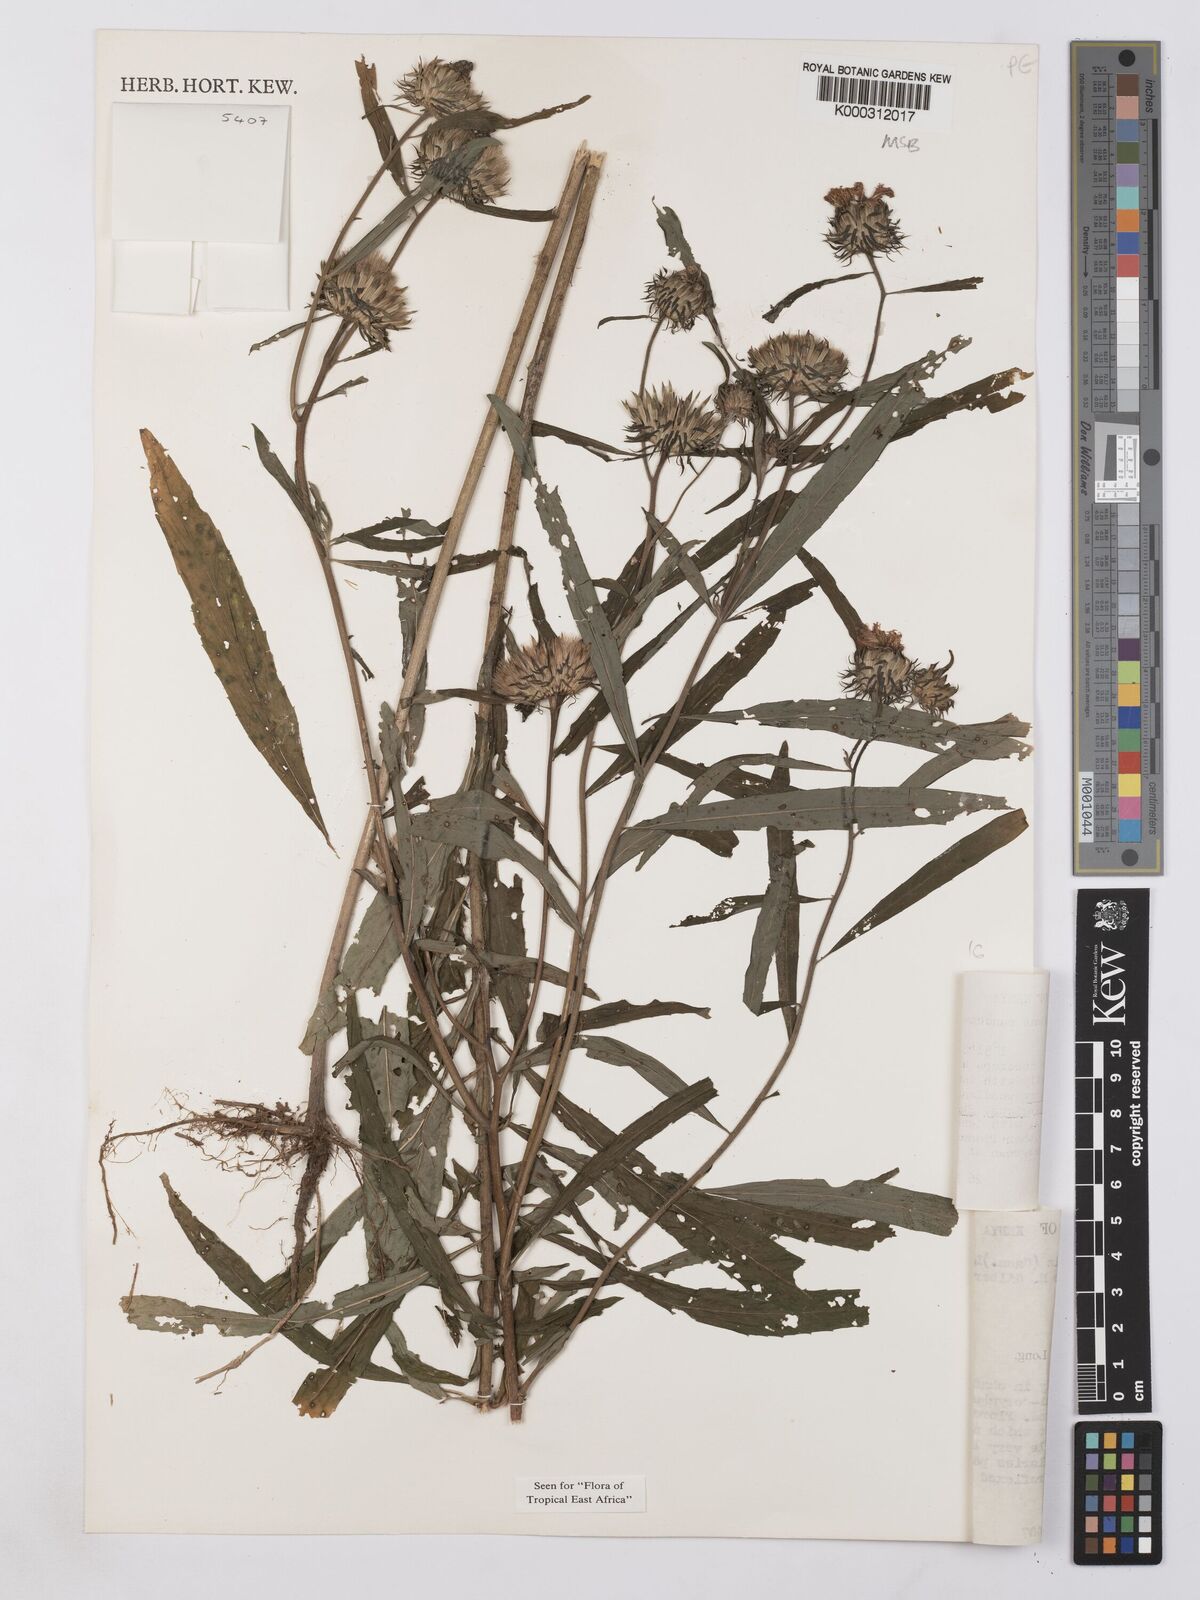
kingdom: Plantae
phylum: Tracheophyta
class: Magnoliopsida
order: Asterales
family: Asteraceae
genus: Vernonia
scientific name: Vernonia galamensis
